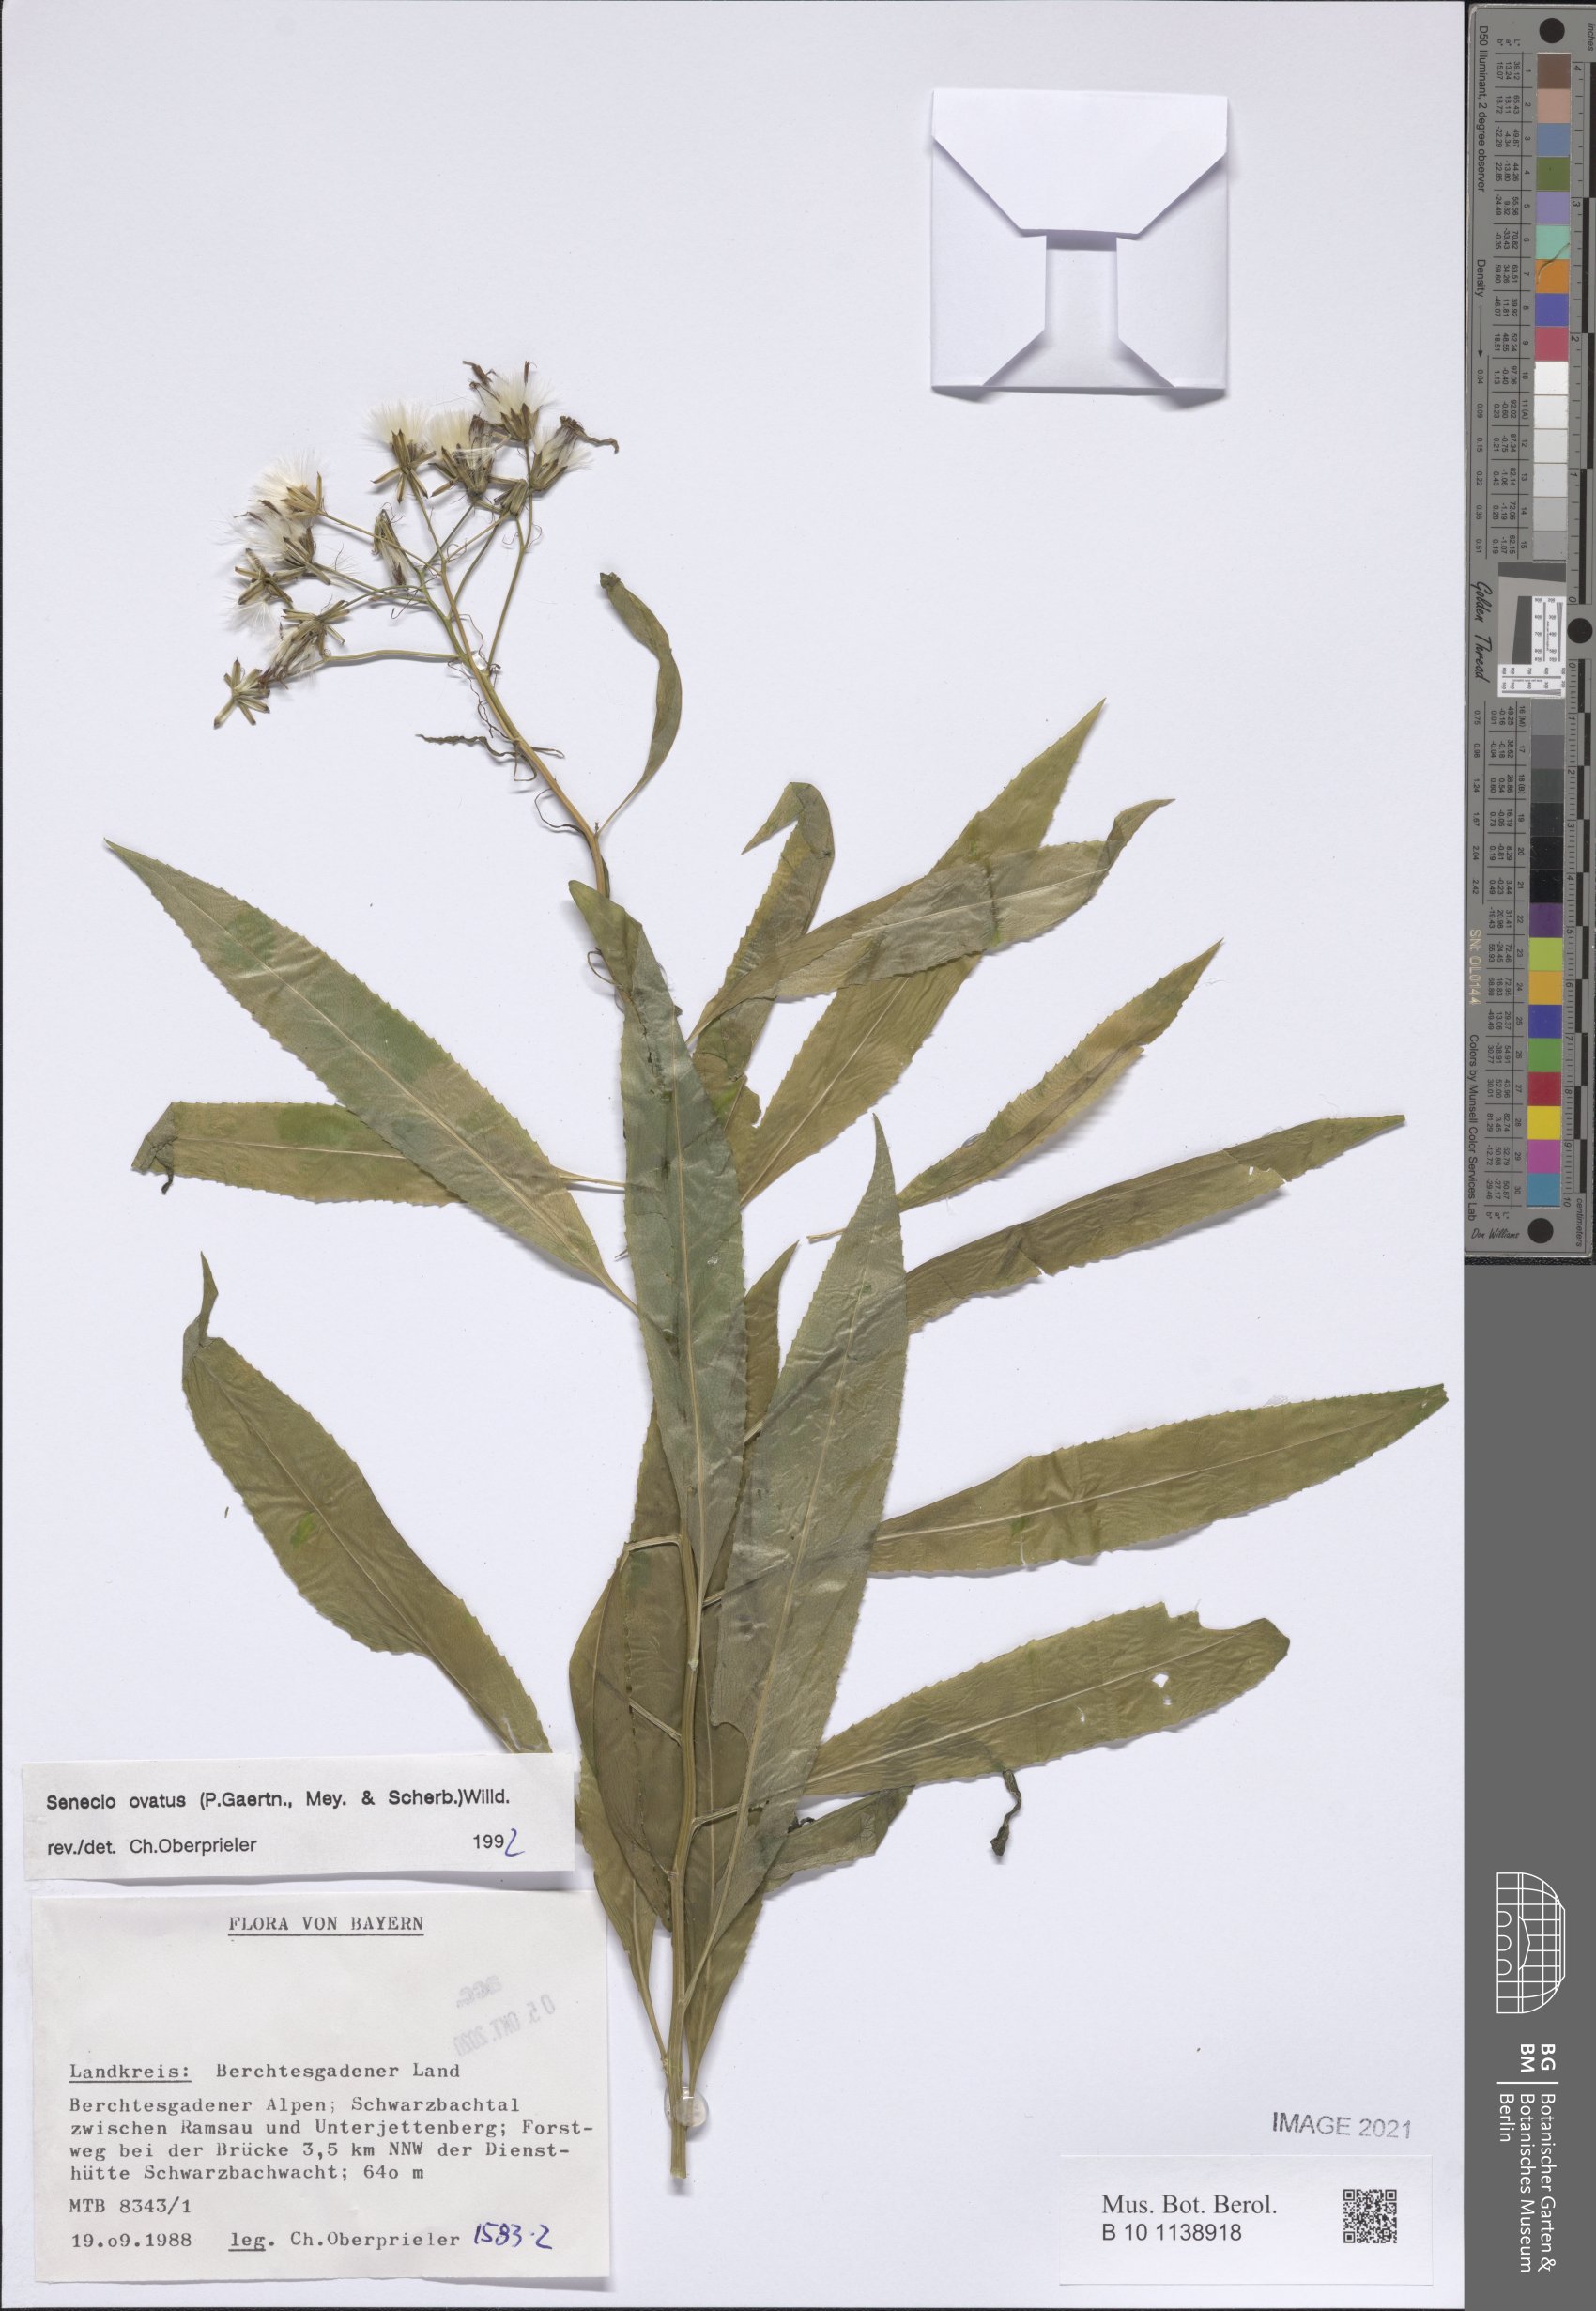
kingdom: Plantae
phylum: Tracheophyta
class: Magnoliopsida
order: Asterales
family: Asteraceae
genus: Senecio
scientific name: Senecio ovatus
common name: Wood ragwort
